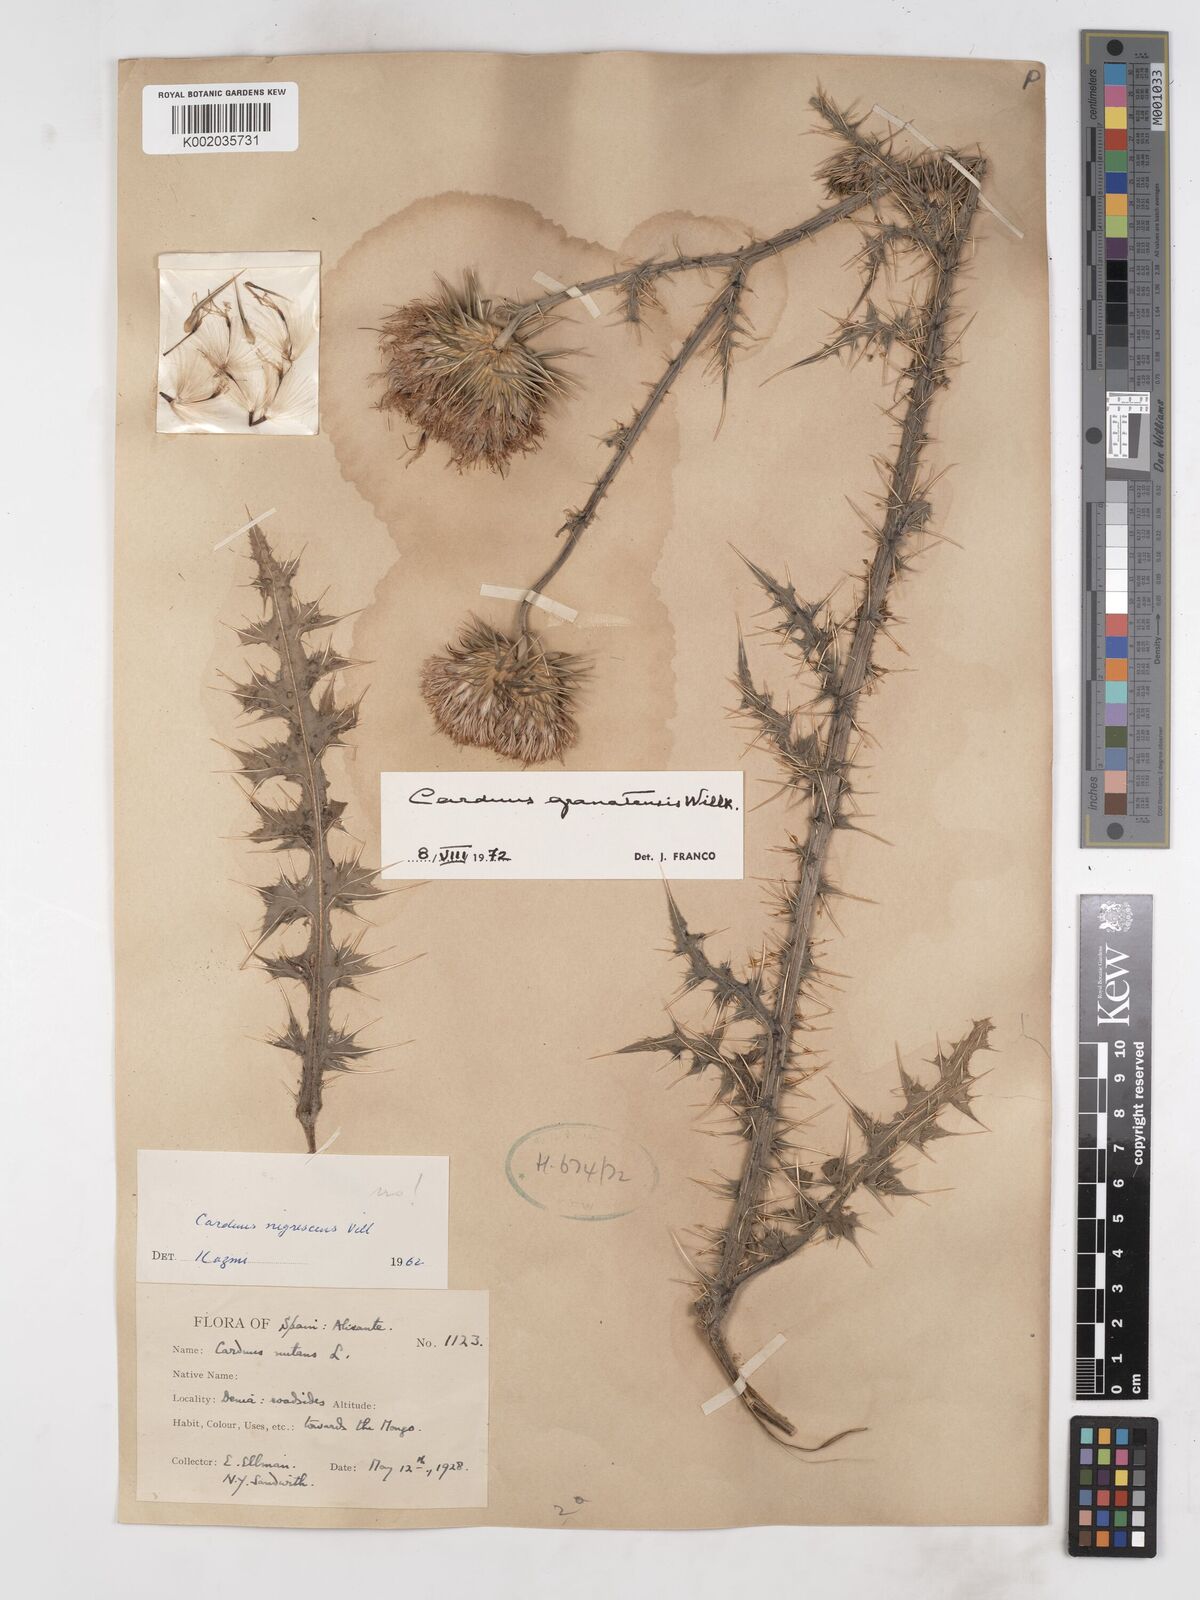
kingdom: Plantae
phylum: Tracheophyta
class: Magnoliopsida
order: Asterales
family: Asteraceae
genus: Carduus
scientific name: Carduus platypus
